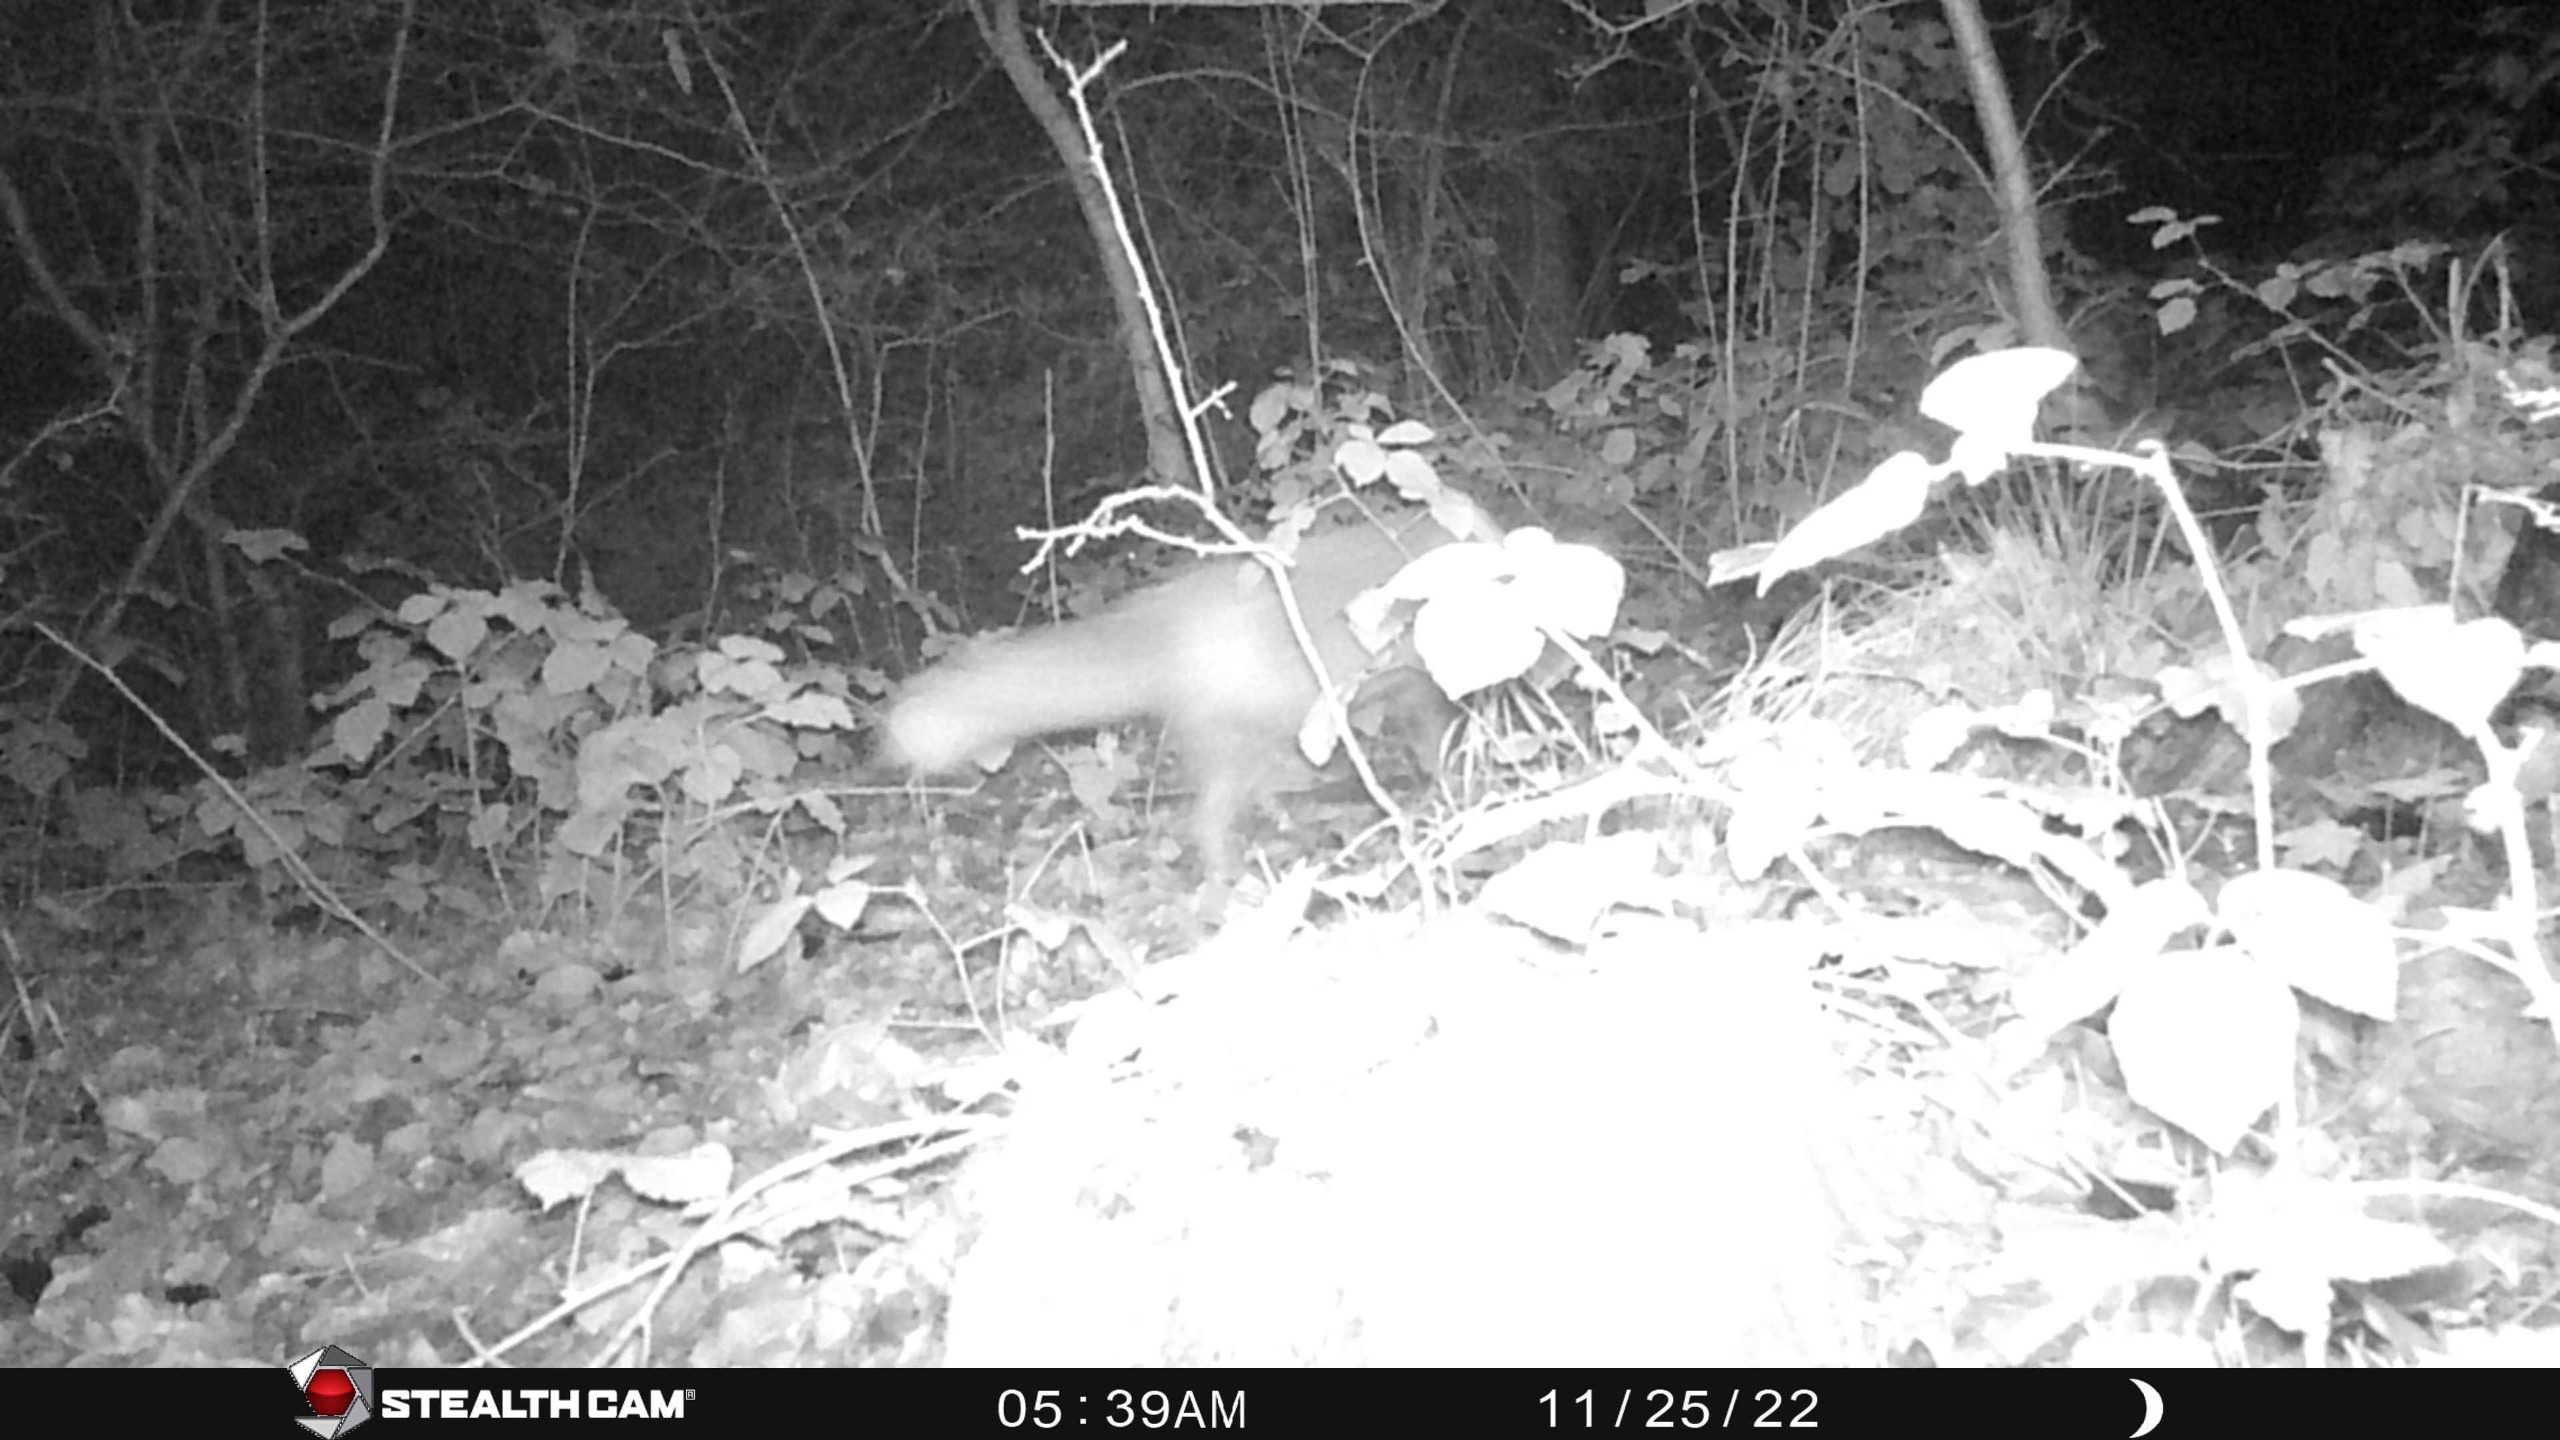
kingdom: Animalia
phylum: Chordata
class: Mammalia
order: Carnivora
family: Canidae
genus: Vulpes
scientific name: Vulpes vulpes
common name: Ræv
